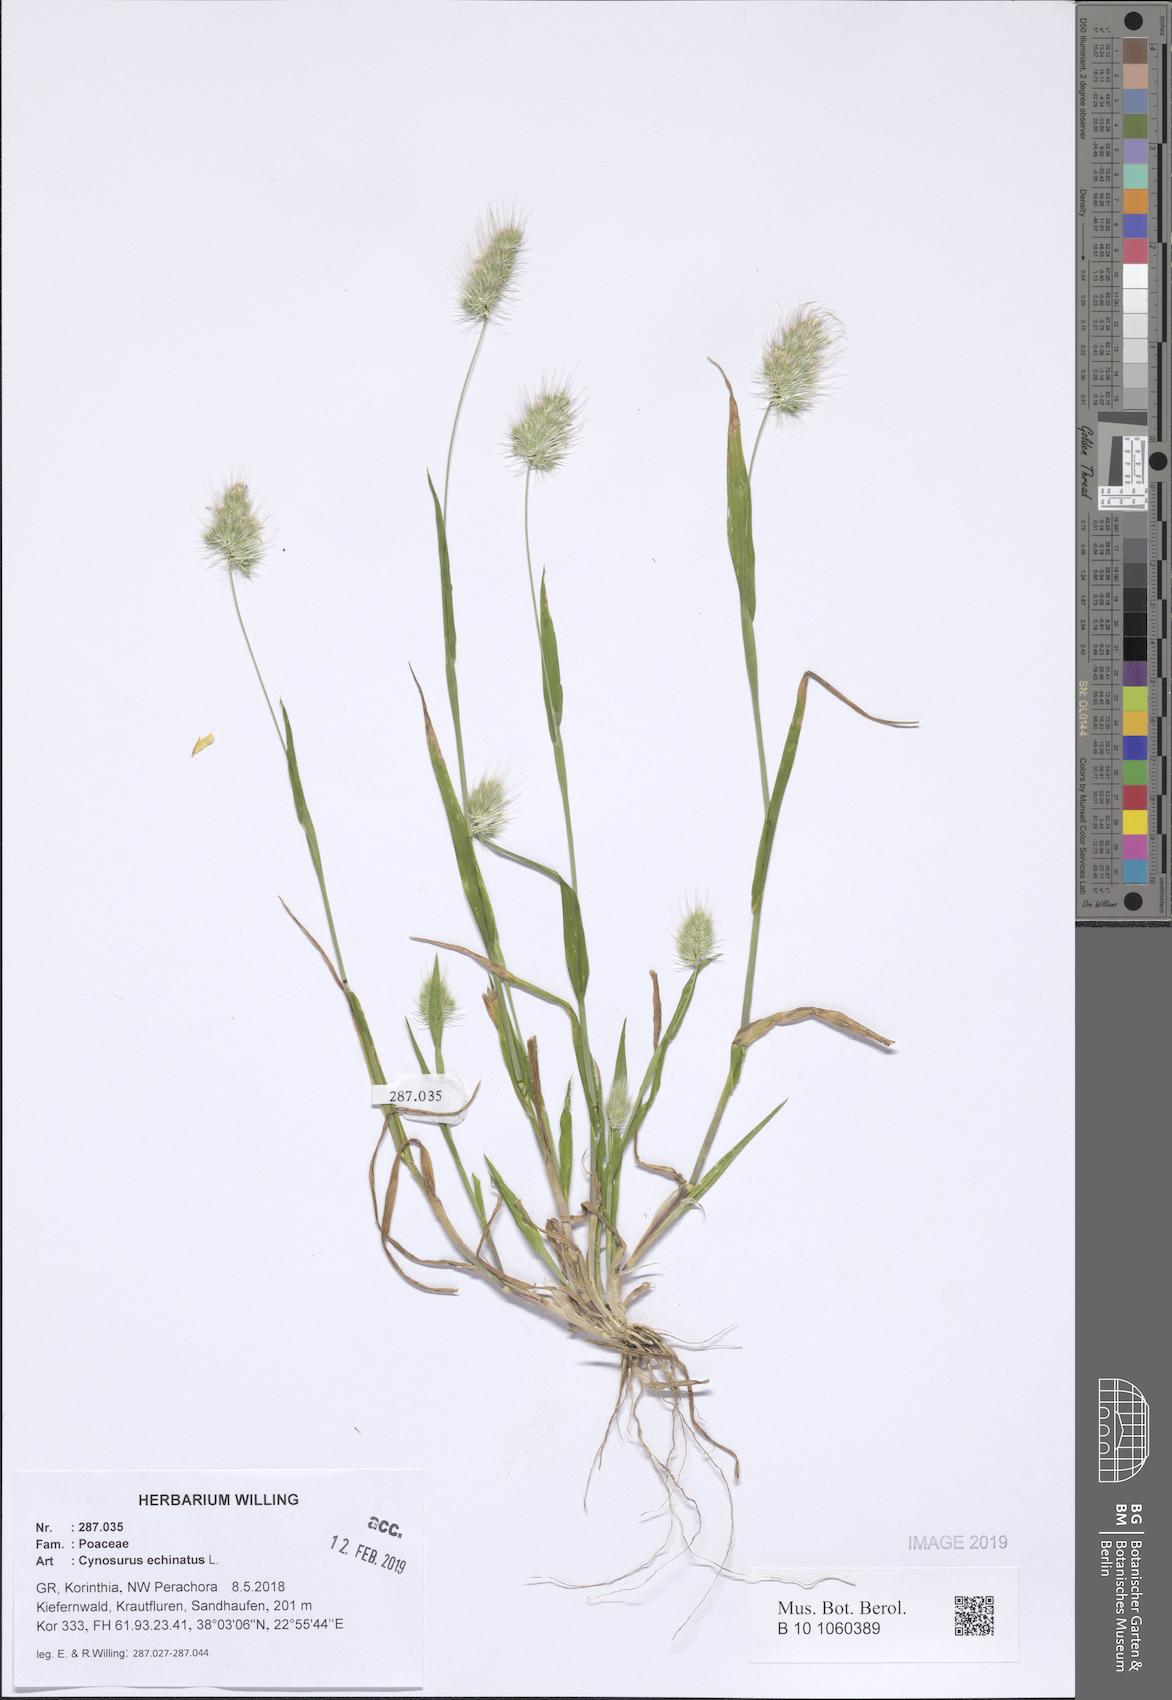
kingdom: Plantae
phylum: Tracheophyta
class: Liliopsida
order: Poales
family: Poaceae
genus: Cynosurus
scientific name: Cynosurus echinatus
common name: Rough dog's-tail
